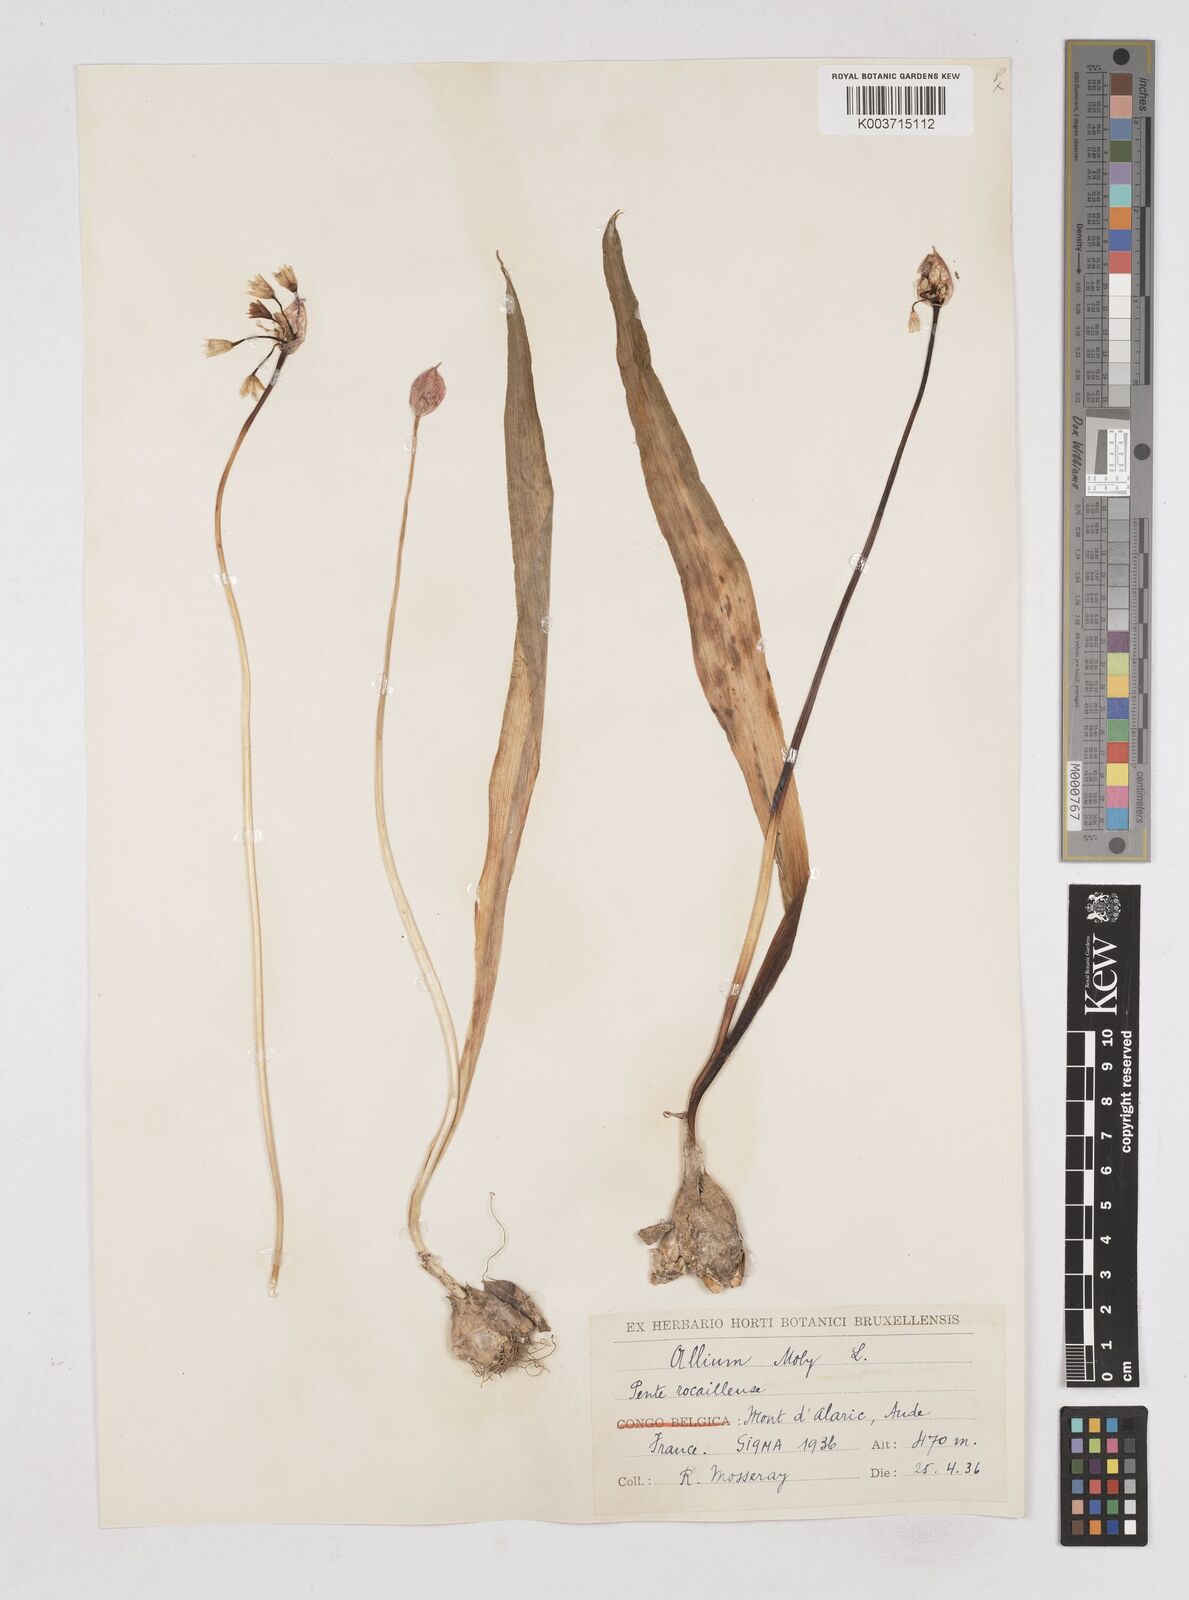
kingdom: Plantae
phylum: Tracheophyta
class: Liliopsida
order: Asparagales
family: Amaryllidaceae
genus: Allium
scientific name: Allium moly
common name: Yellow garlic
